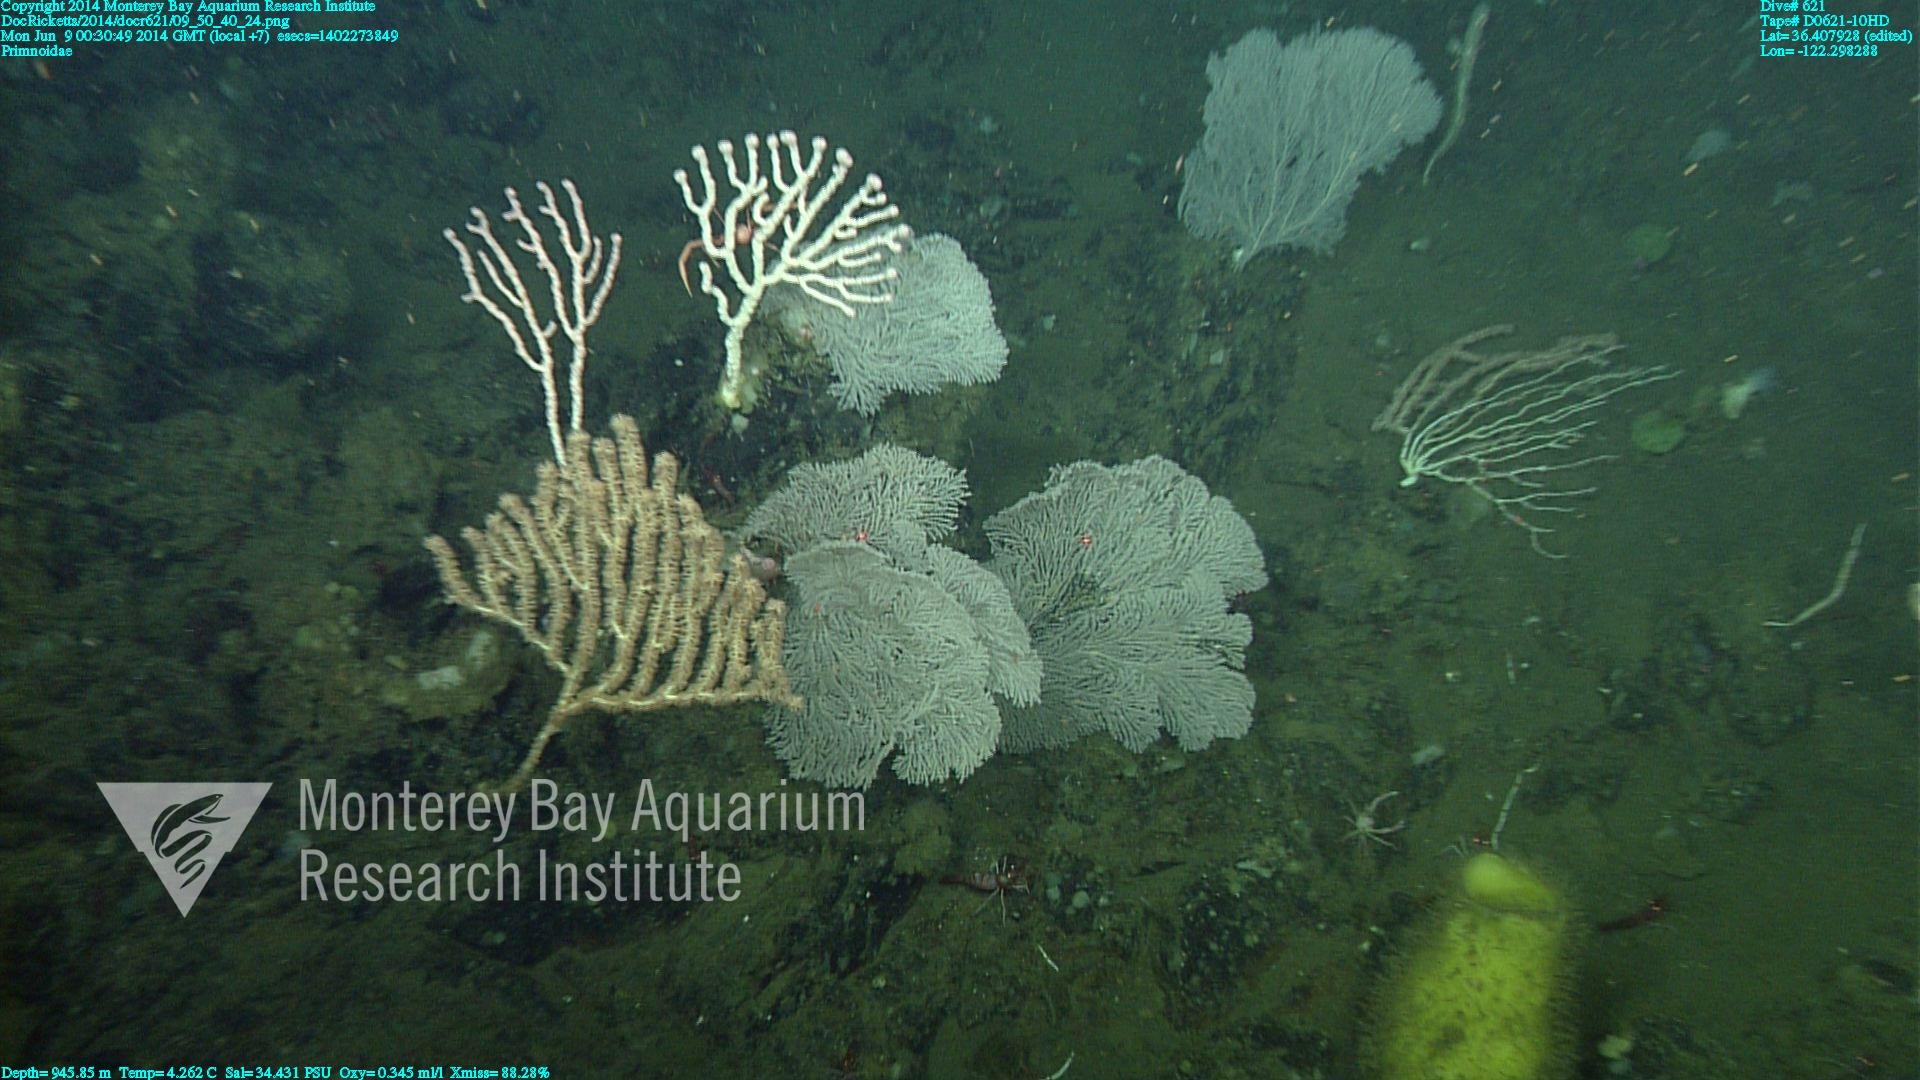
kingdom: Animalia
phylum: Cnidaria
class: Anthozoa
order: Scleralcyonacea
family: Primnoidae
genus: Parastenella
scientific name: Parastenella
